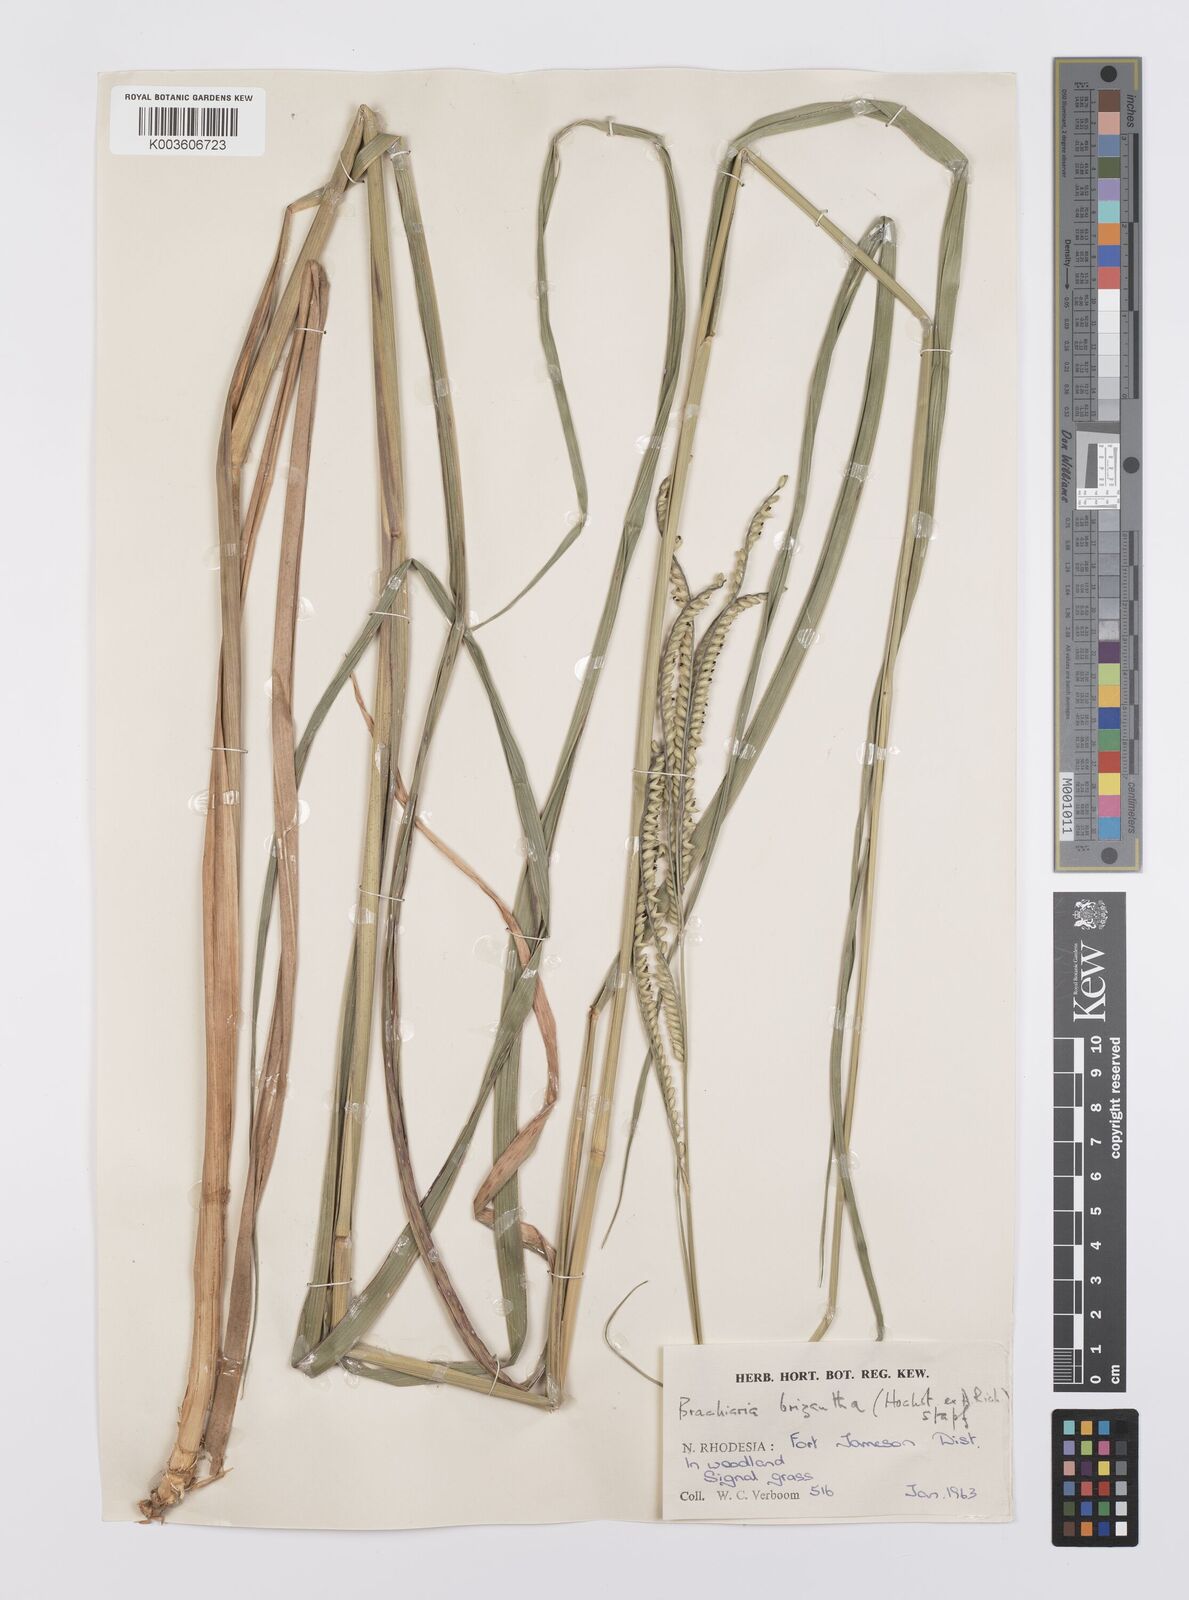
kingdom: Plantae
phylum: Tracheophyta
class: Liliopsida
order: Poales
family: Poaceae
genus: Urochloa
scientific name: Urochloa brizantha
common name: Palisade signalgrass
